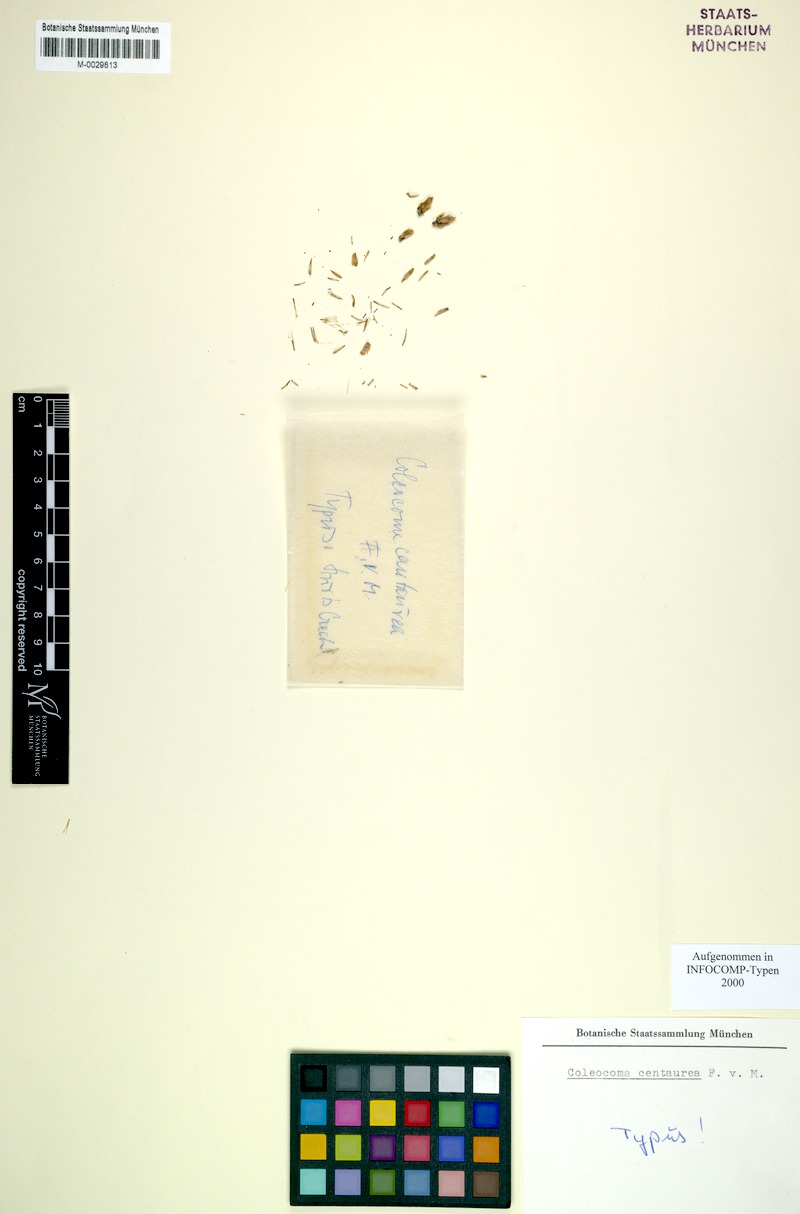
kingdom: Plantae
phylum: Tracheophyta
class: Magnoliopsida
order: Asterales
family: Asteraceae
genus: Coleocoma
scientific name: Coleocoma centaurea
